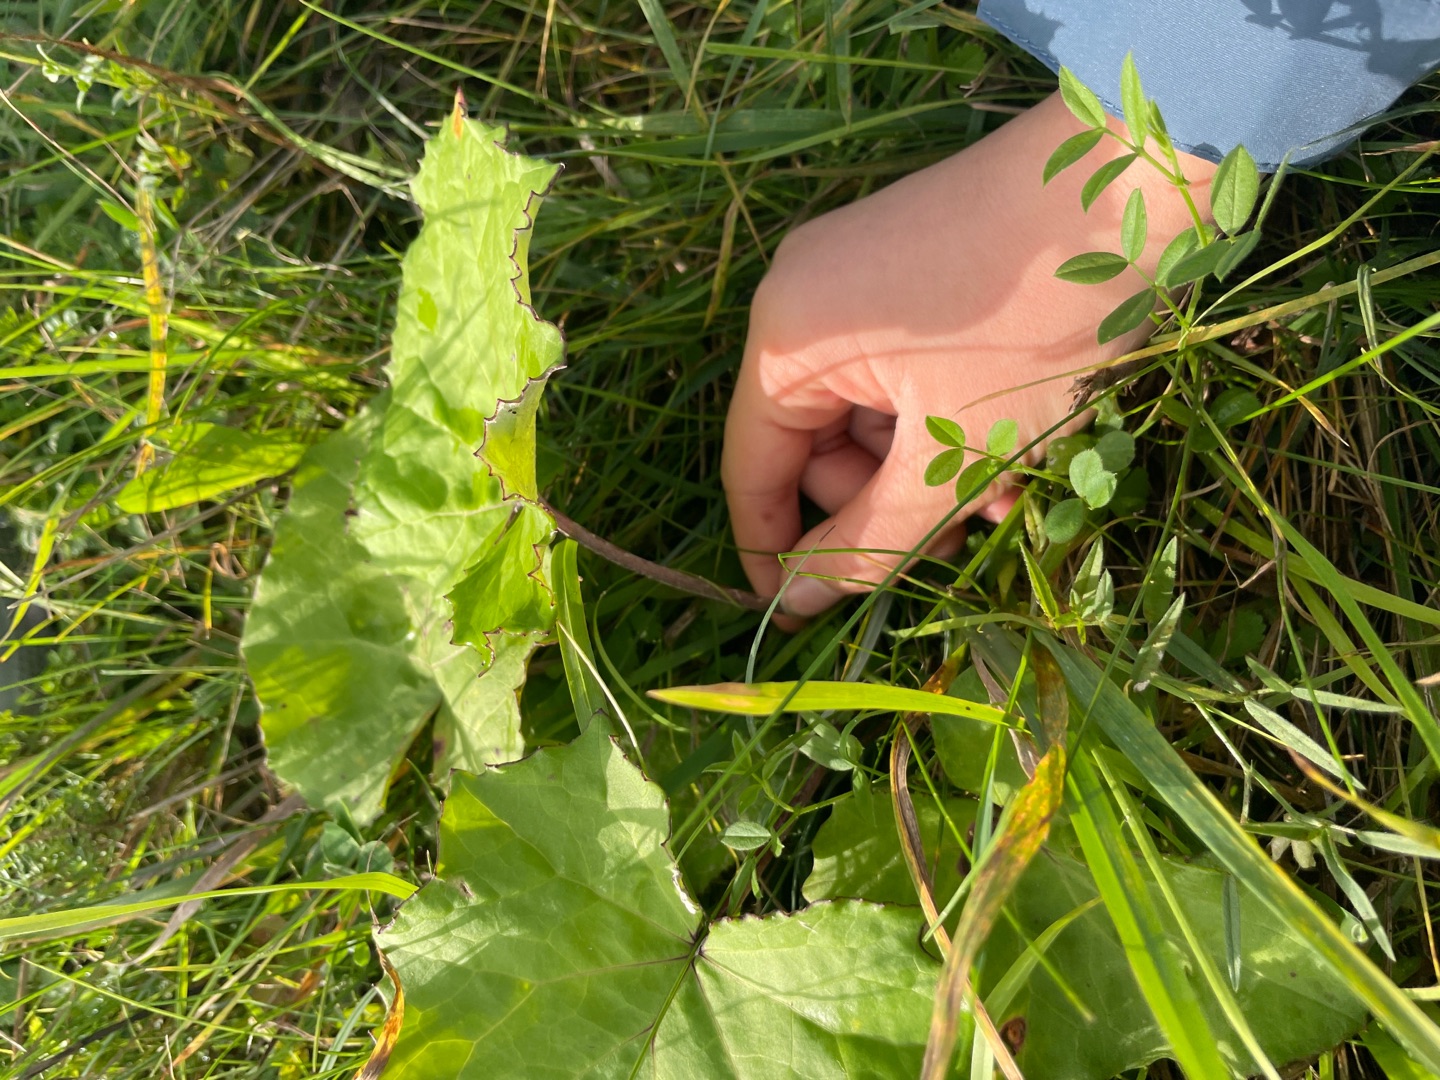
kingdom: Plantae
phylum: Tracheophyta
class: Magnoliopsida
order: Asterales
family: Asteraceae
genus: Tussilago
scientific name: Tussilago farfara
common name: Følfod
